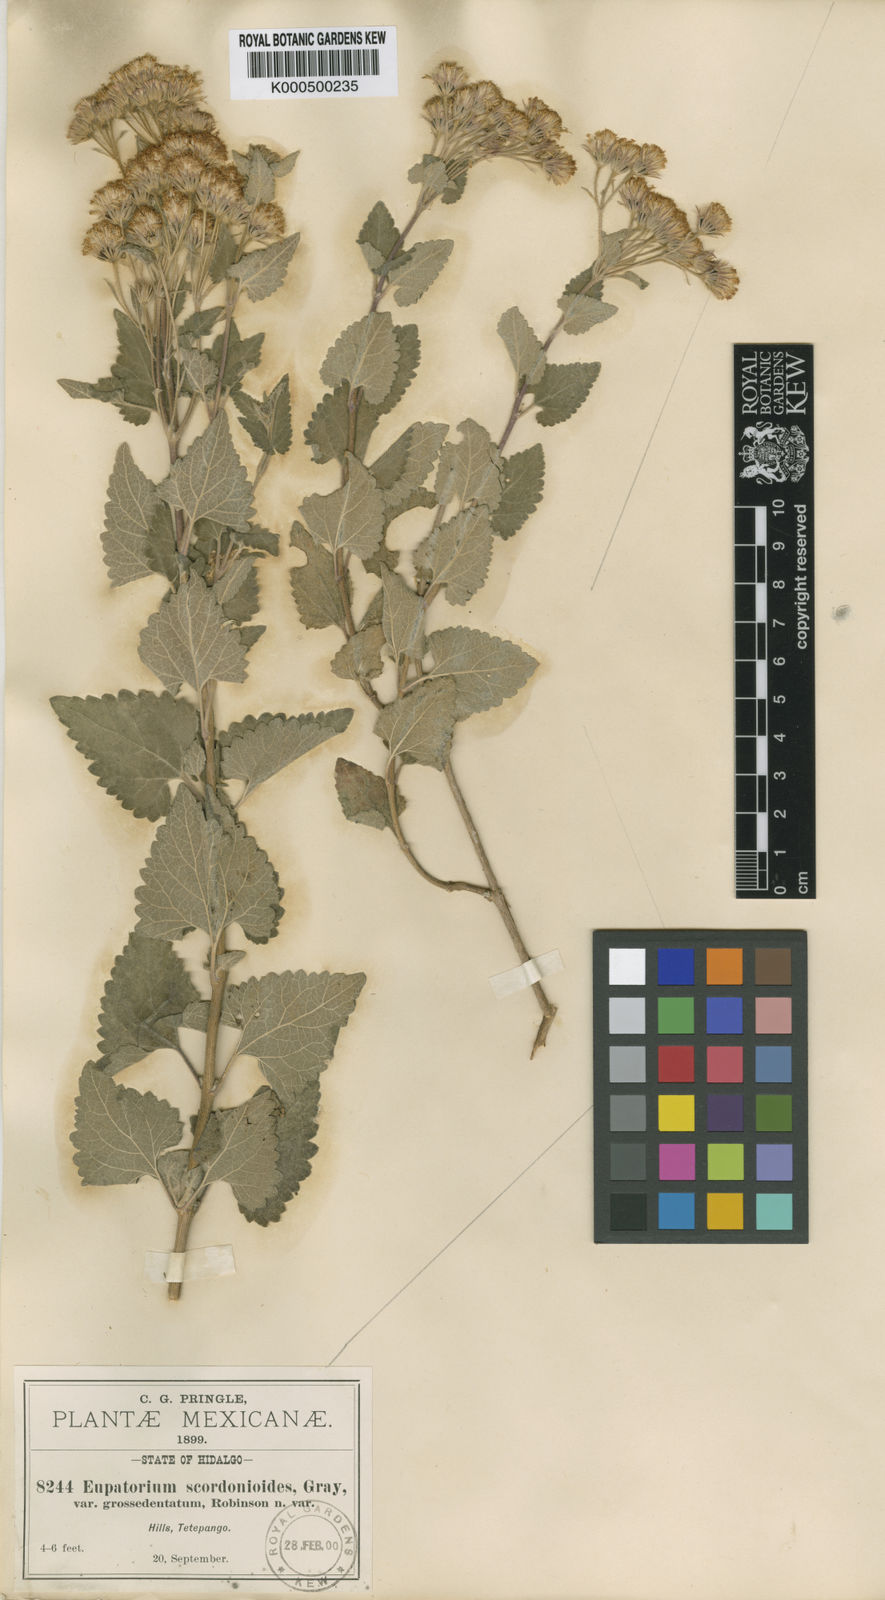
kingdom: Plantae
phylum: Tracheophyta
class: Magnoliopsida
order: Asterales
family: Asteraceae
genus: Ageratina
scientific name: Ageratina scorodonioides
